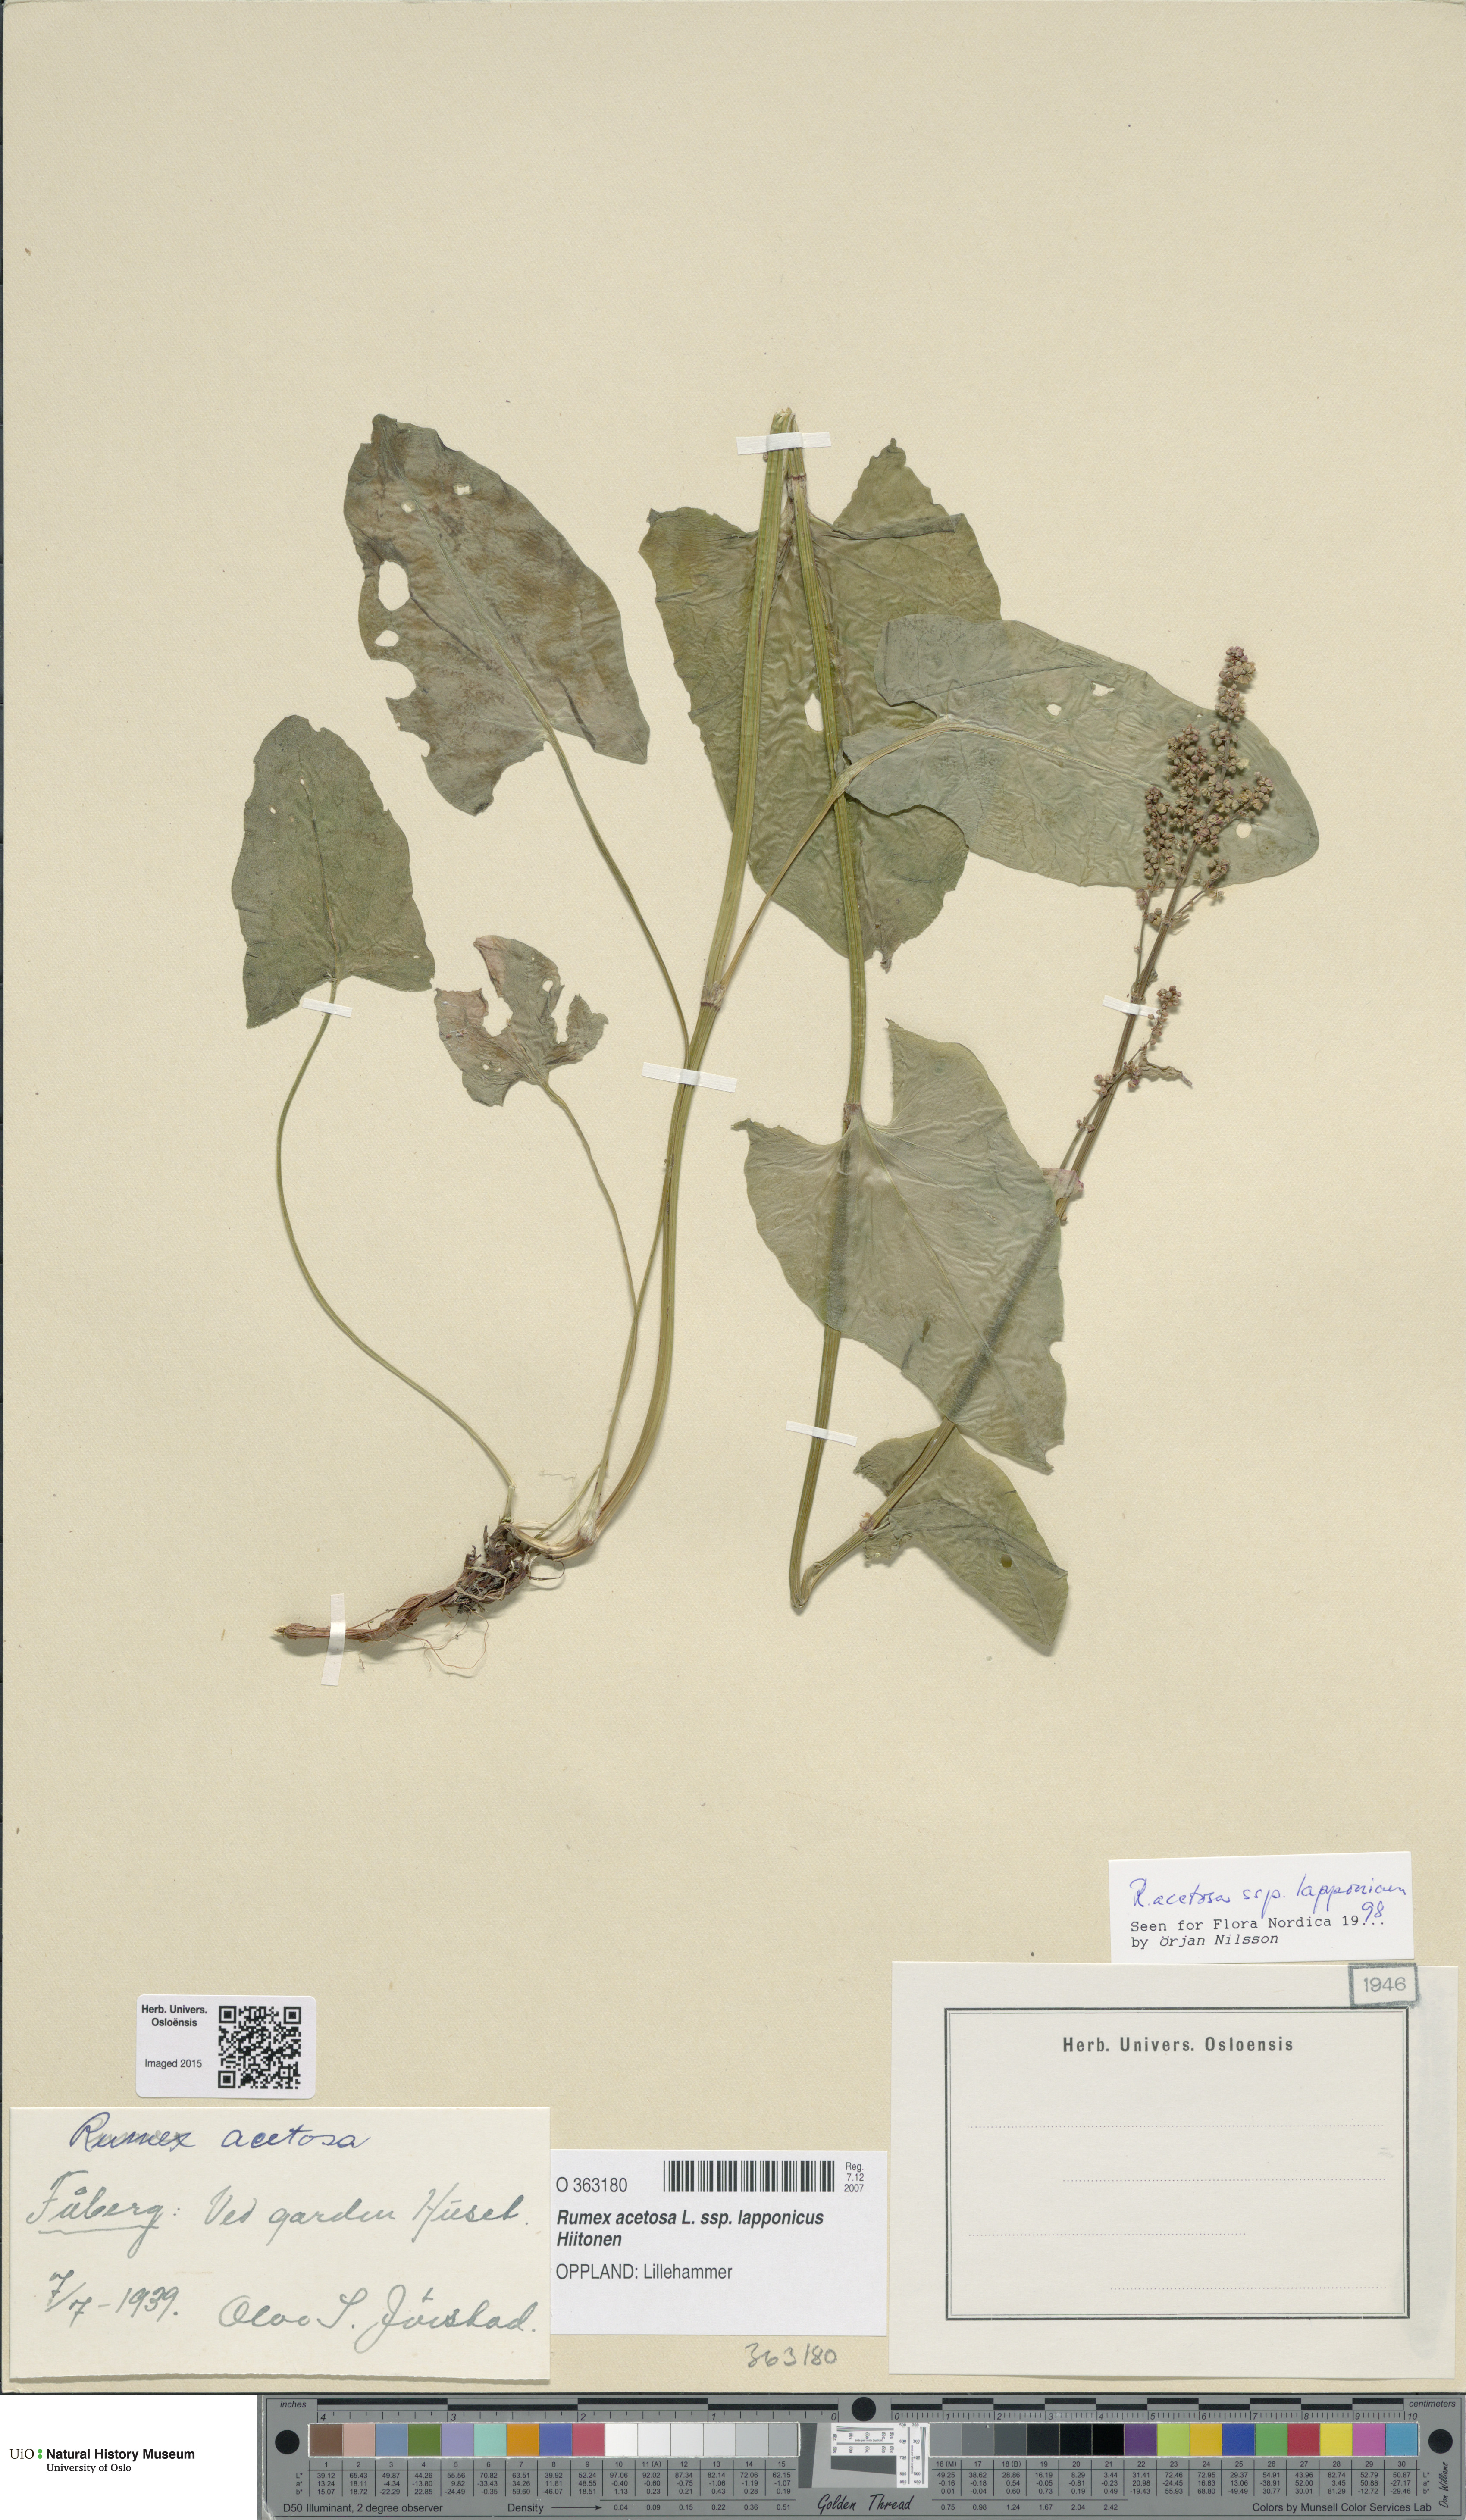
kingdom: Plantae
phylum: Tracheophyta
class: Magnoliopsida
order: Caryophyllales
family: Polygonaceae
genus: Rumex
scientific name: Rumex lapponicus
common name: Lapland mountain sorrel
